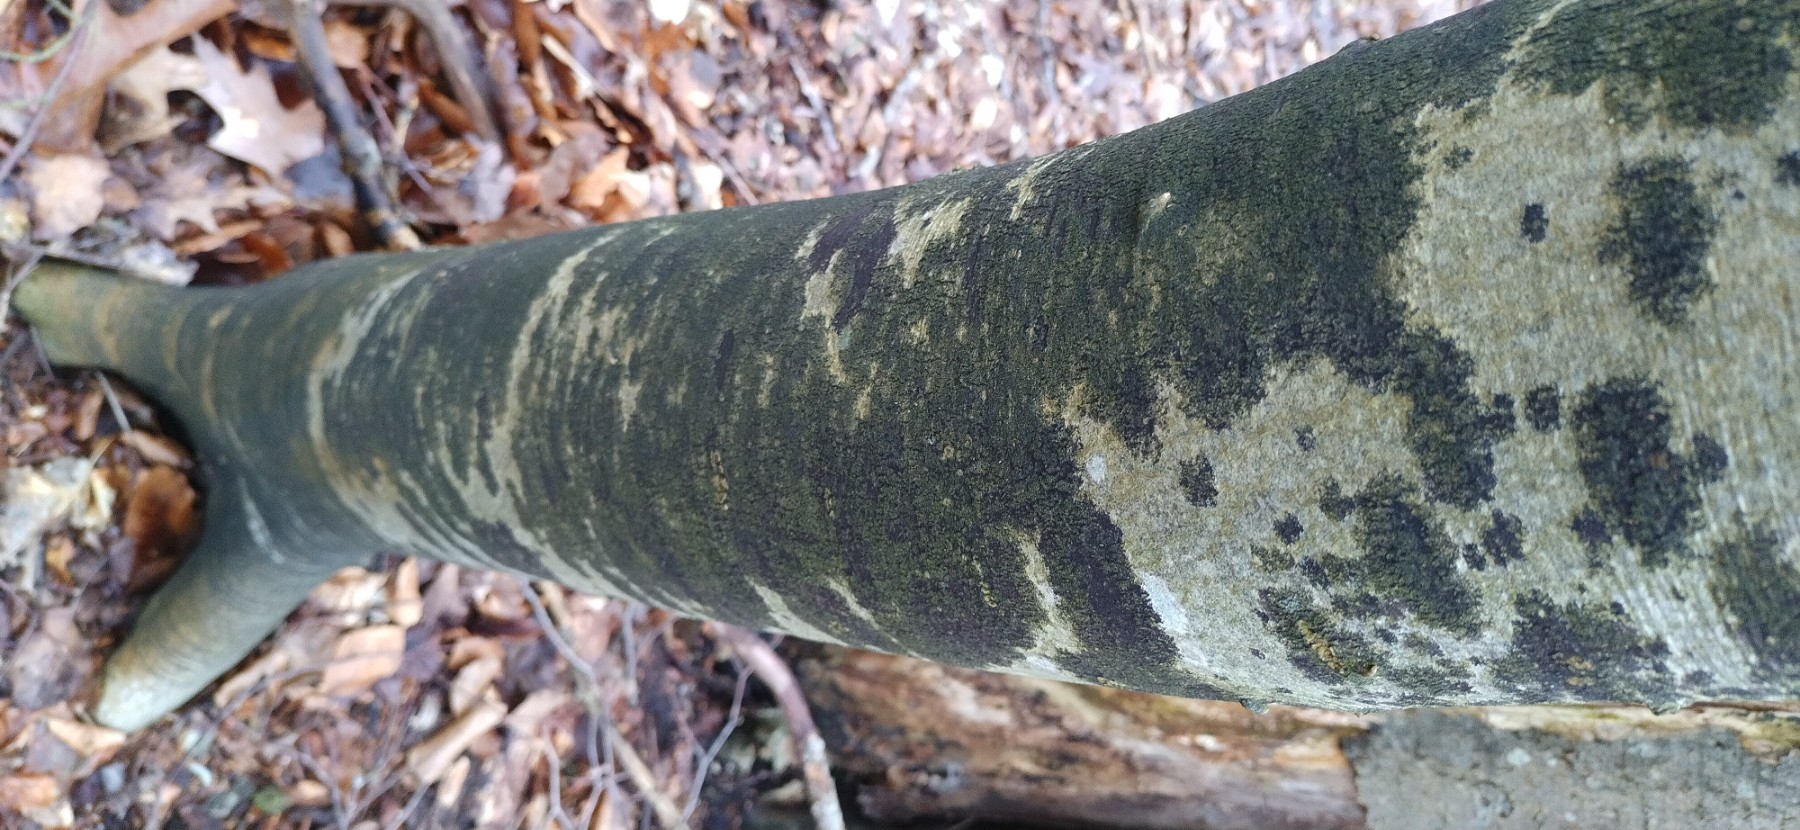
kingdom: Fungi
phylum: Ascomycota
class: Leotiomycetes
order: Rhytismatales
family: Ascodichaenaceae
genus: Ascodichaena
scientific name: Ascodichaena rugosa
